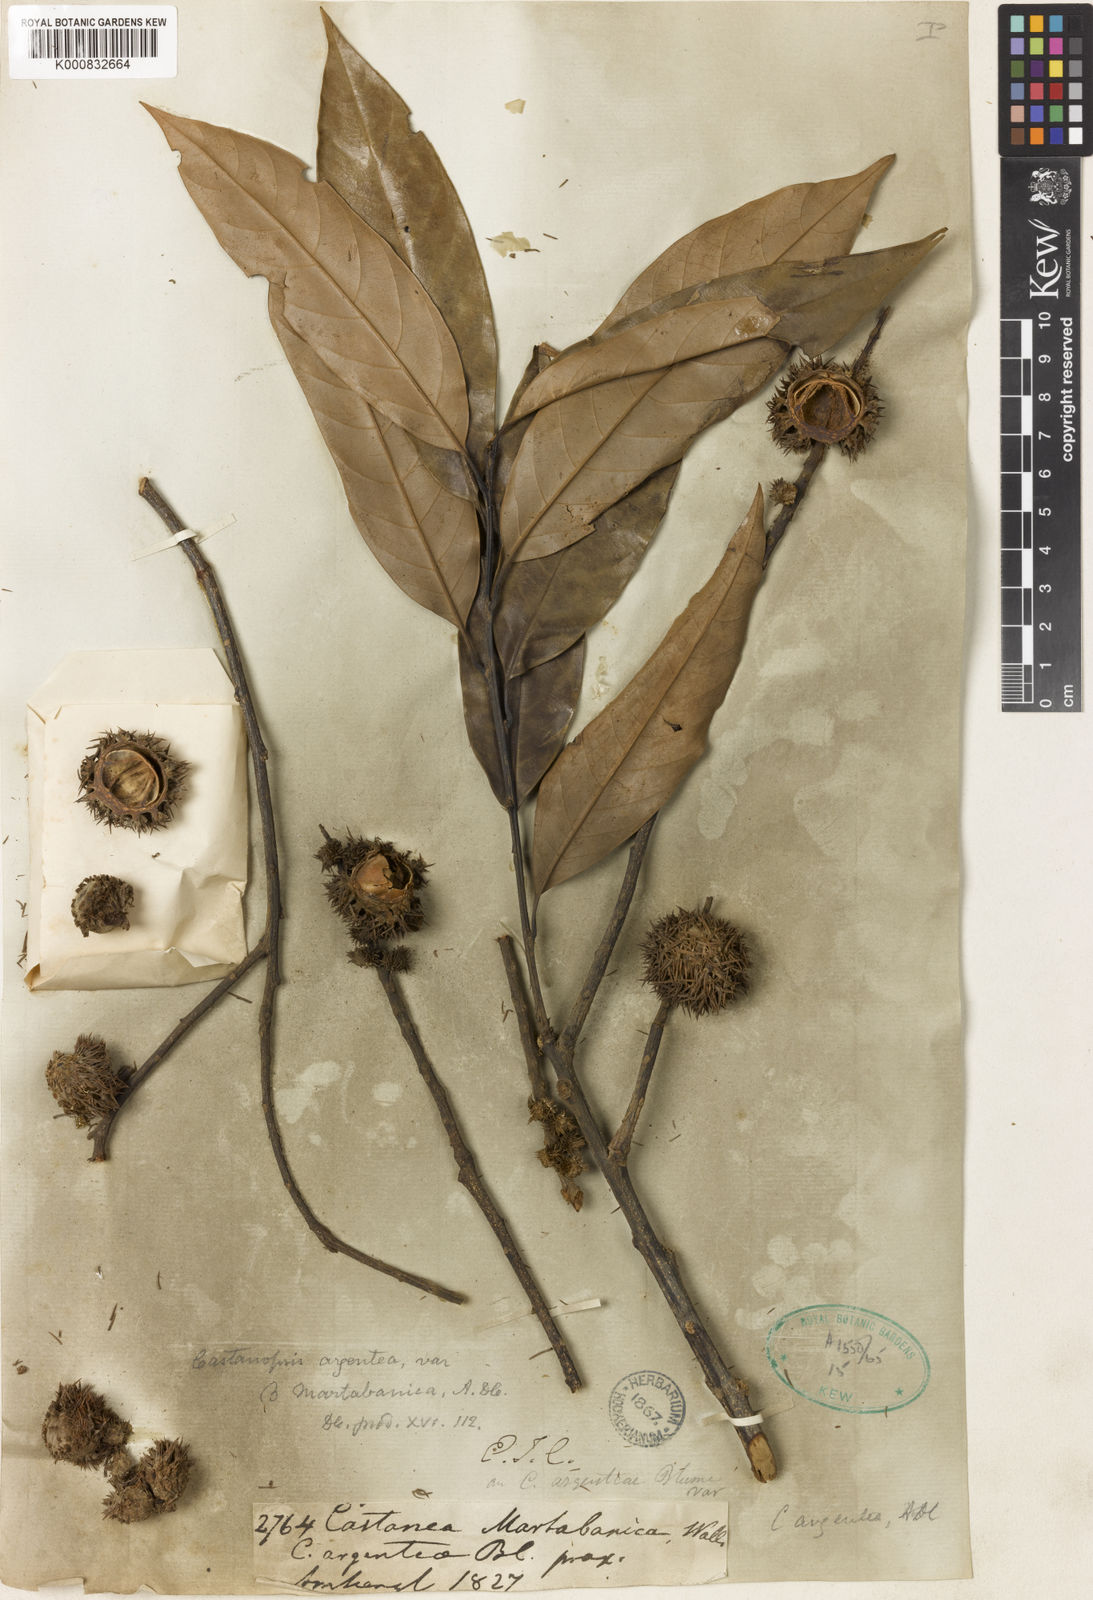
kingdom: Plantae
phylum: Tracheophyta
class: Magnoliopsida
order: Fagales
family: Fagaceae
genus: Castanopsis
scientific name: Castanopsis tribuloides
